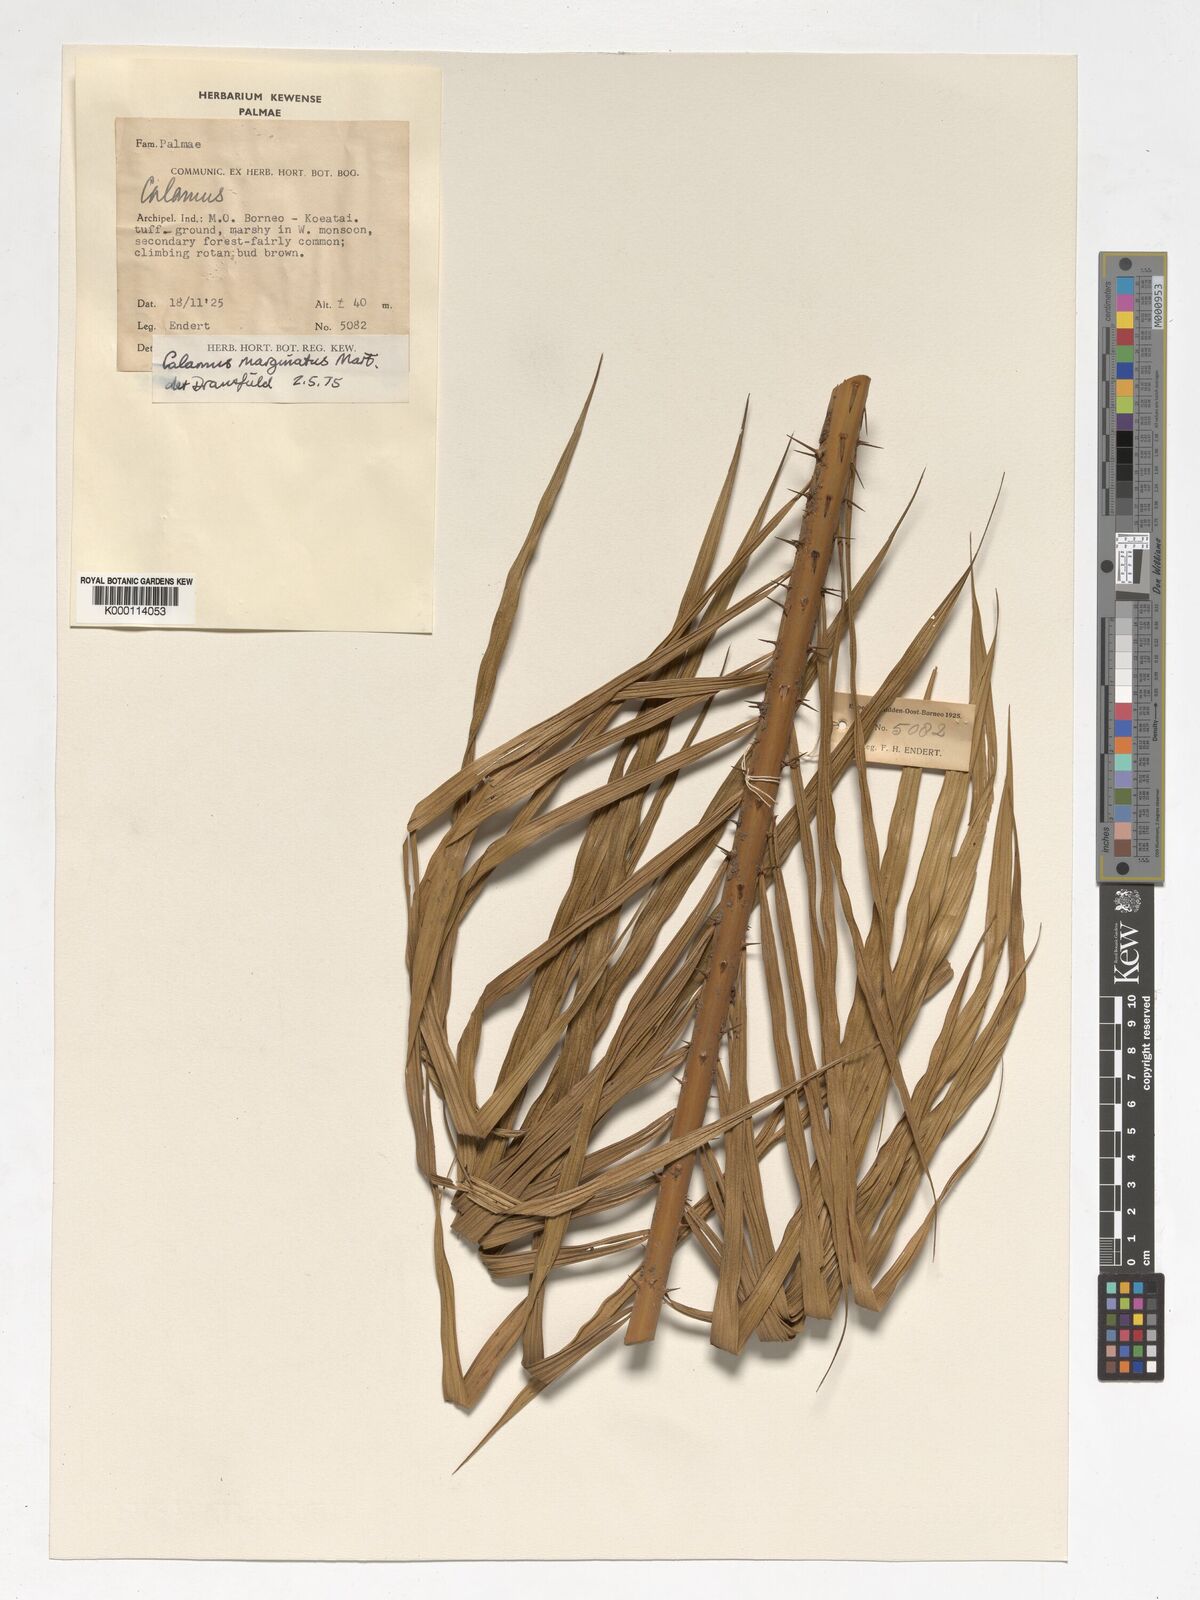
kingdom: Plantae
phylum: Tracheophyta
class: Liliopsida
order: Arecales
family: Arecaceae
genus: Calamus
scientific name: Calamus
